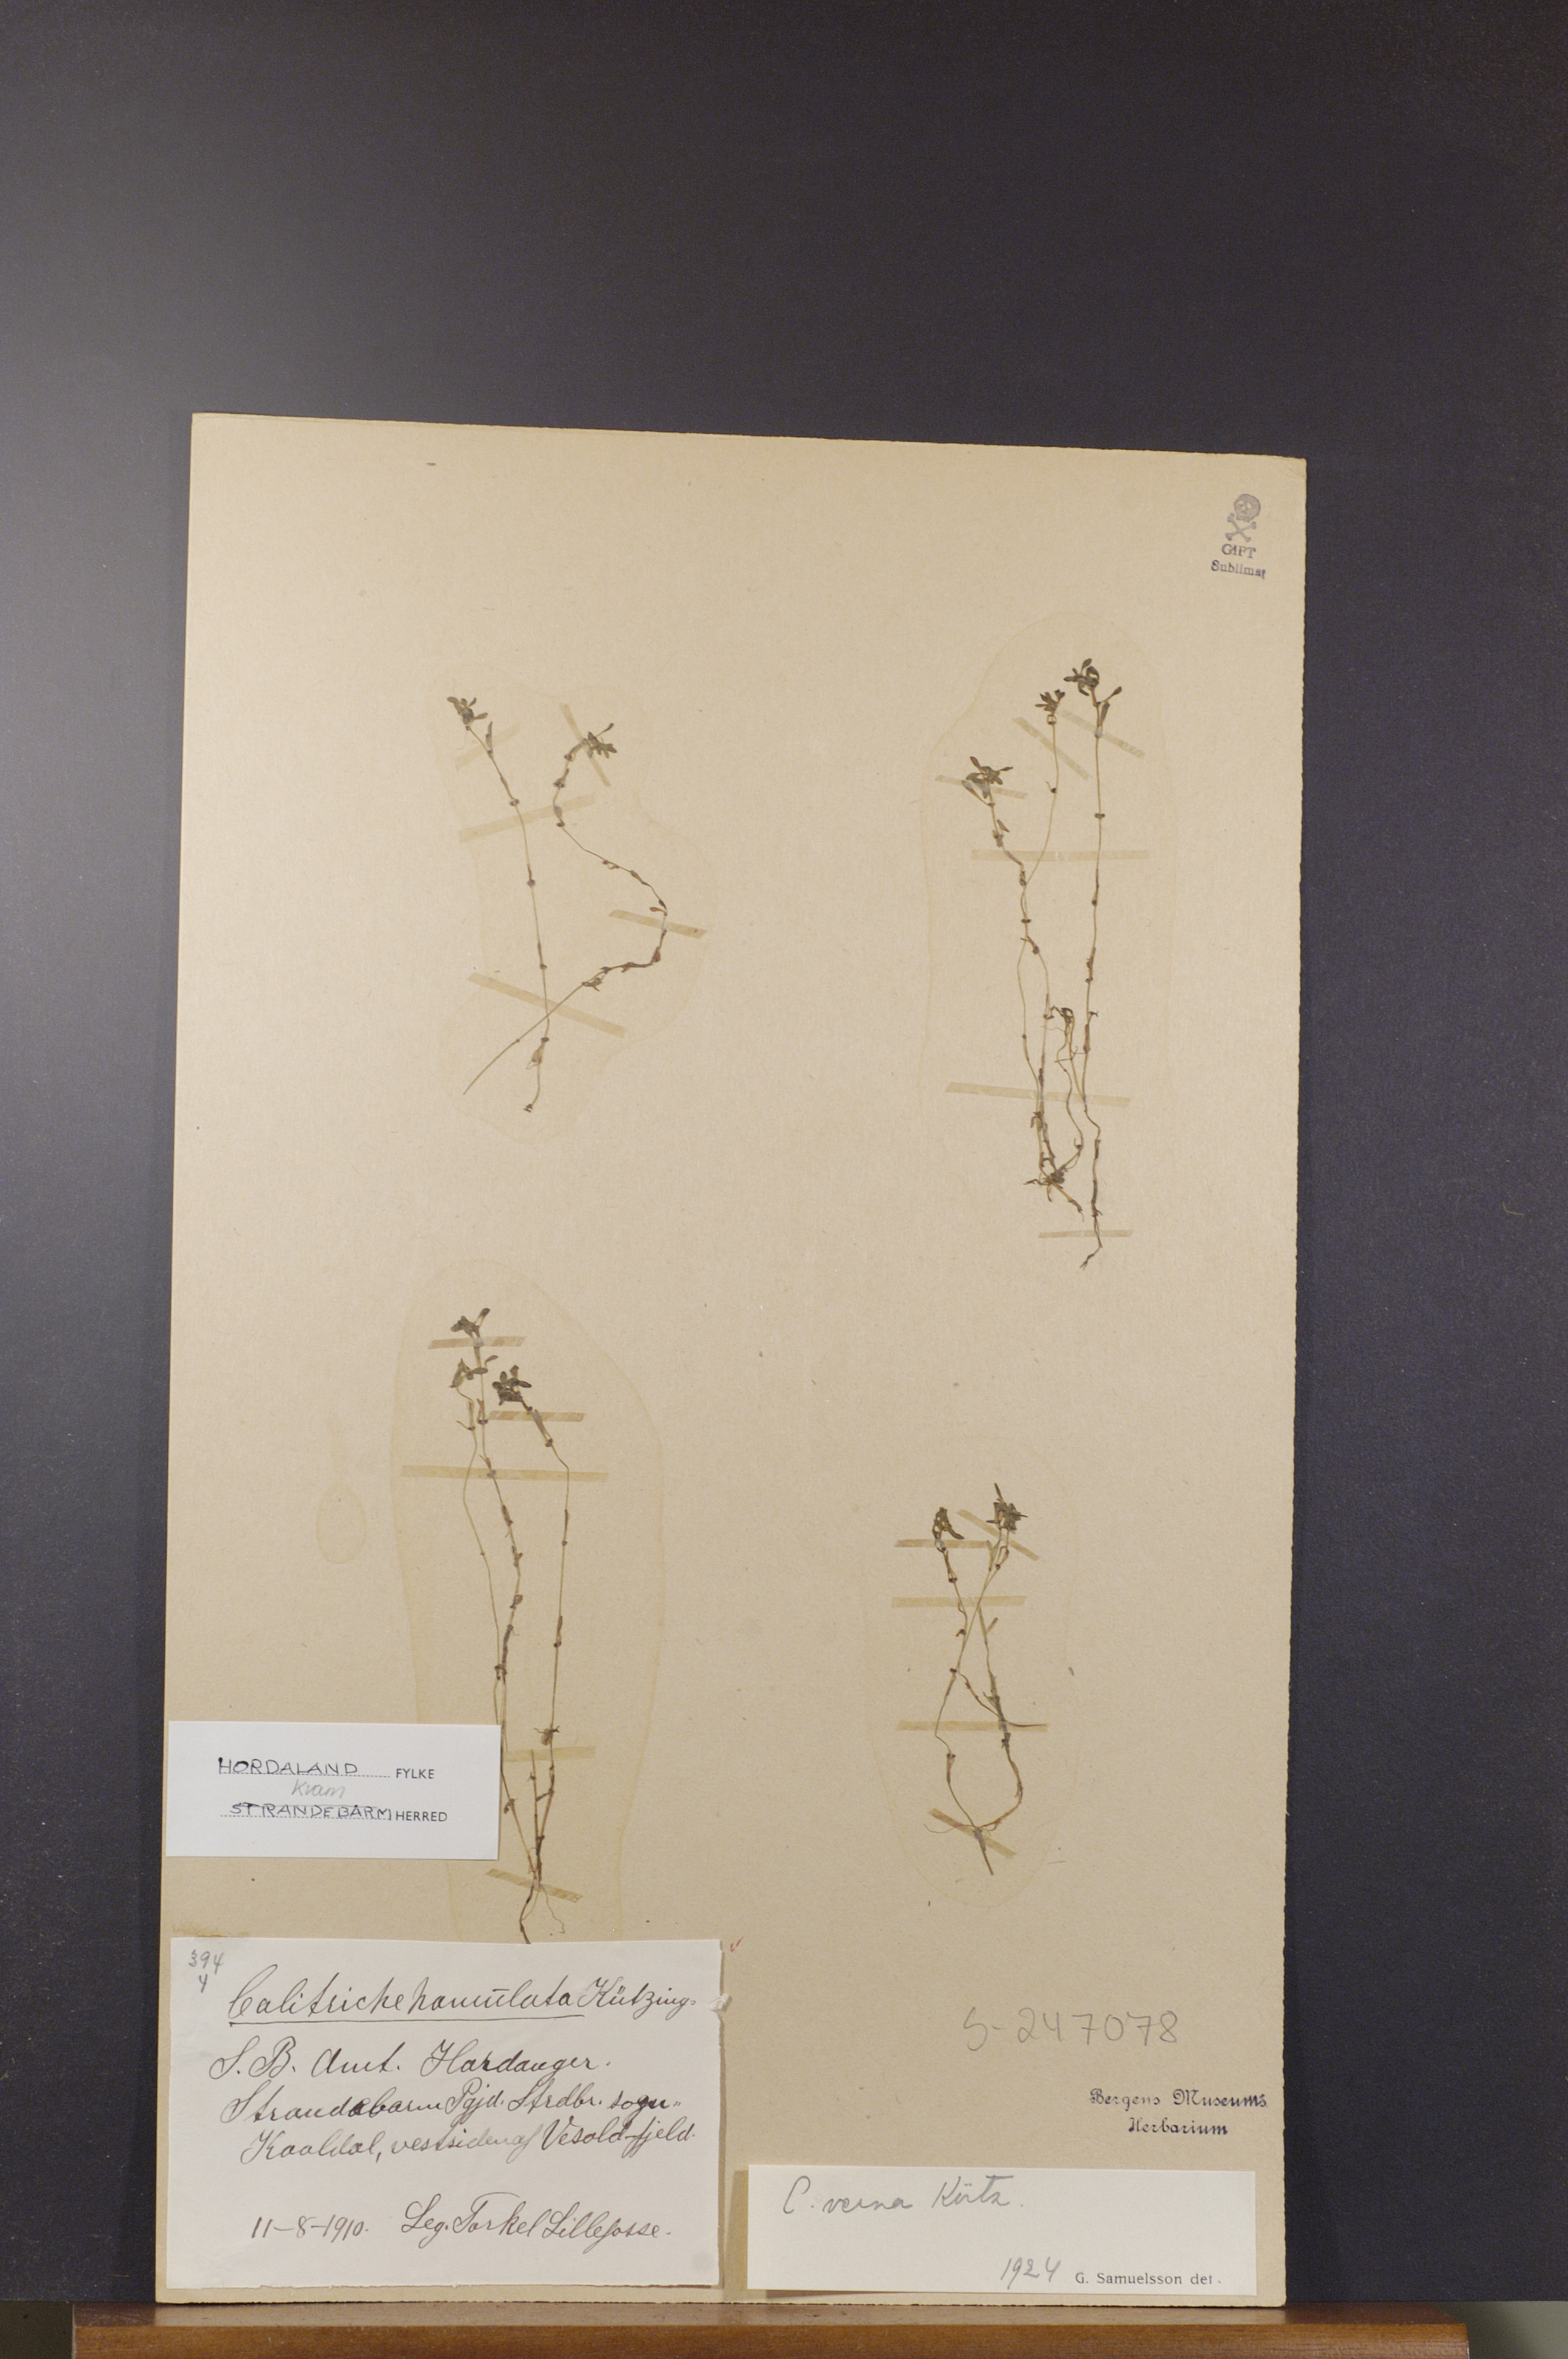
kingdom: Plantae
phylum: Tracheophyta
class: Magnoliopsida
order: Lamiales
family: Plantaginaceae
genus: Callitriche
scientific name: Callitriche palustris
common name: Spring water-starwort
